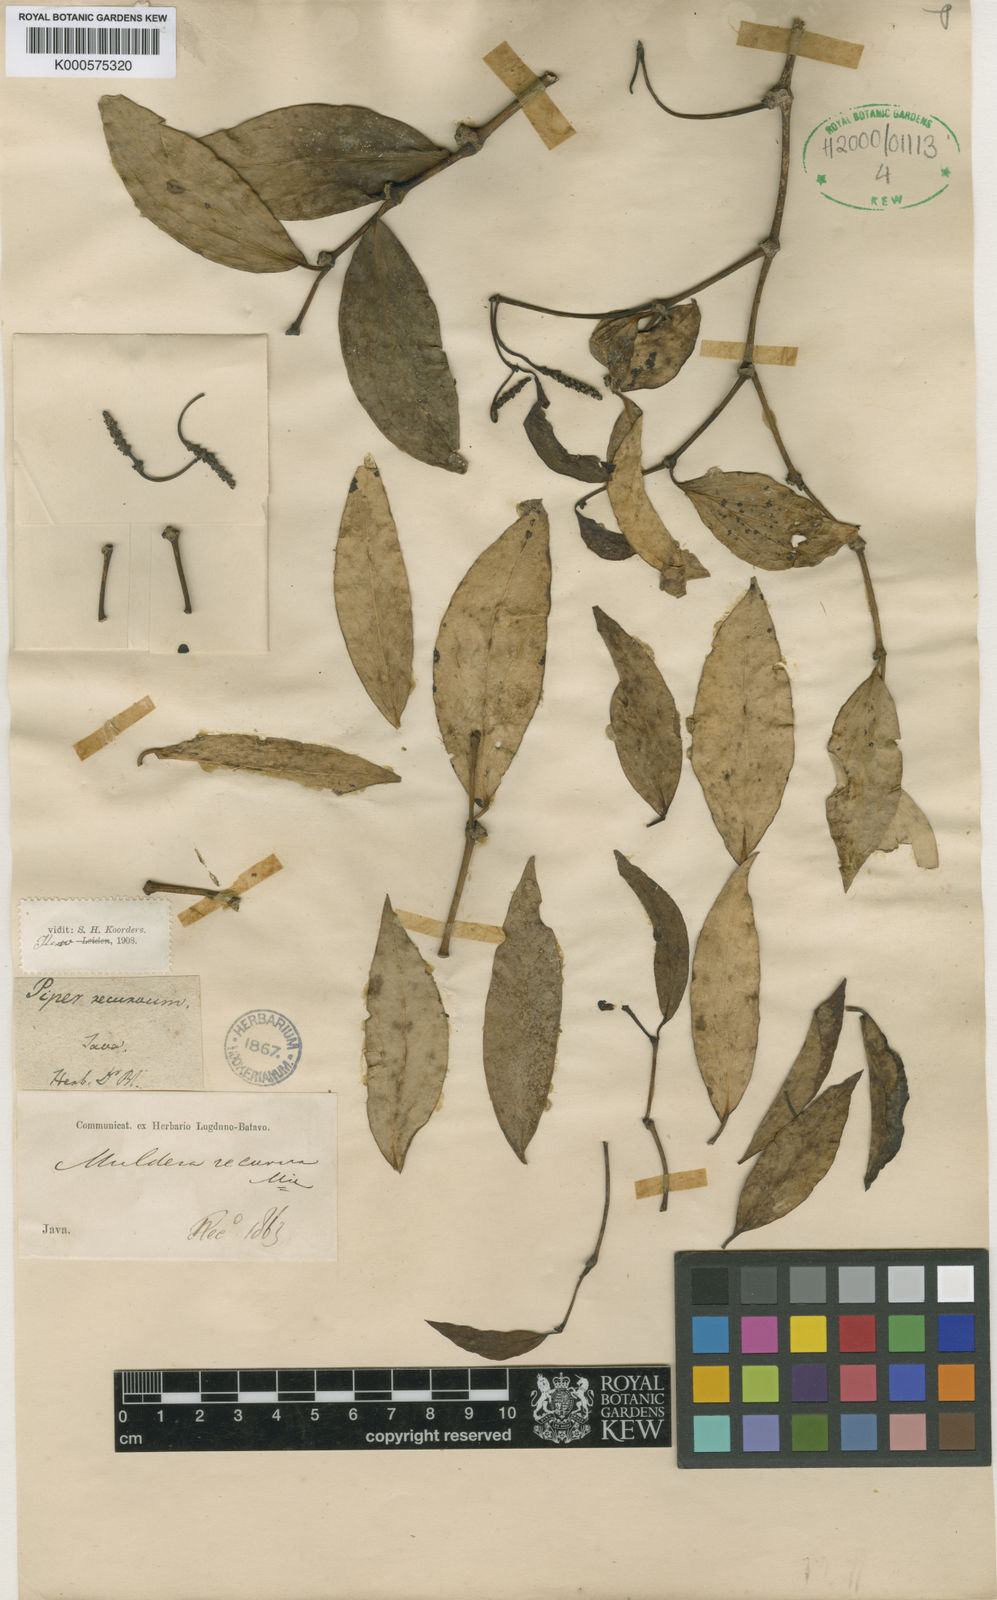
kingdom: Plantae
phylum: Tracheophyta
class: Magnoliopsida
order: Piperales
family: Piperaceae
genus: Piper
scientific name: Piper baccatum
